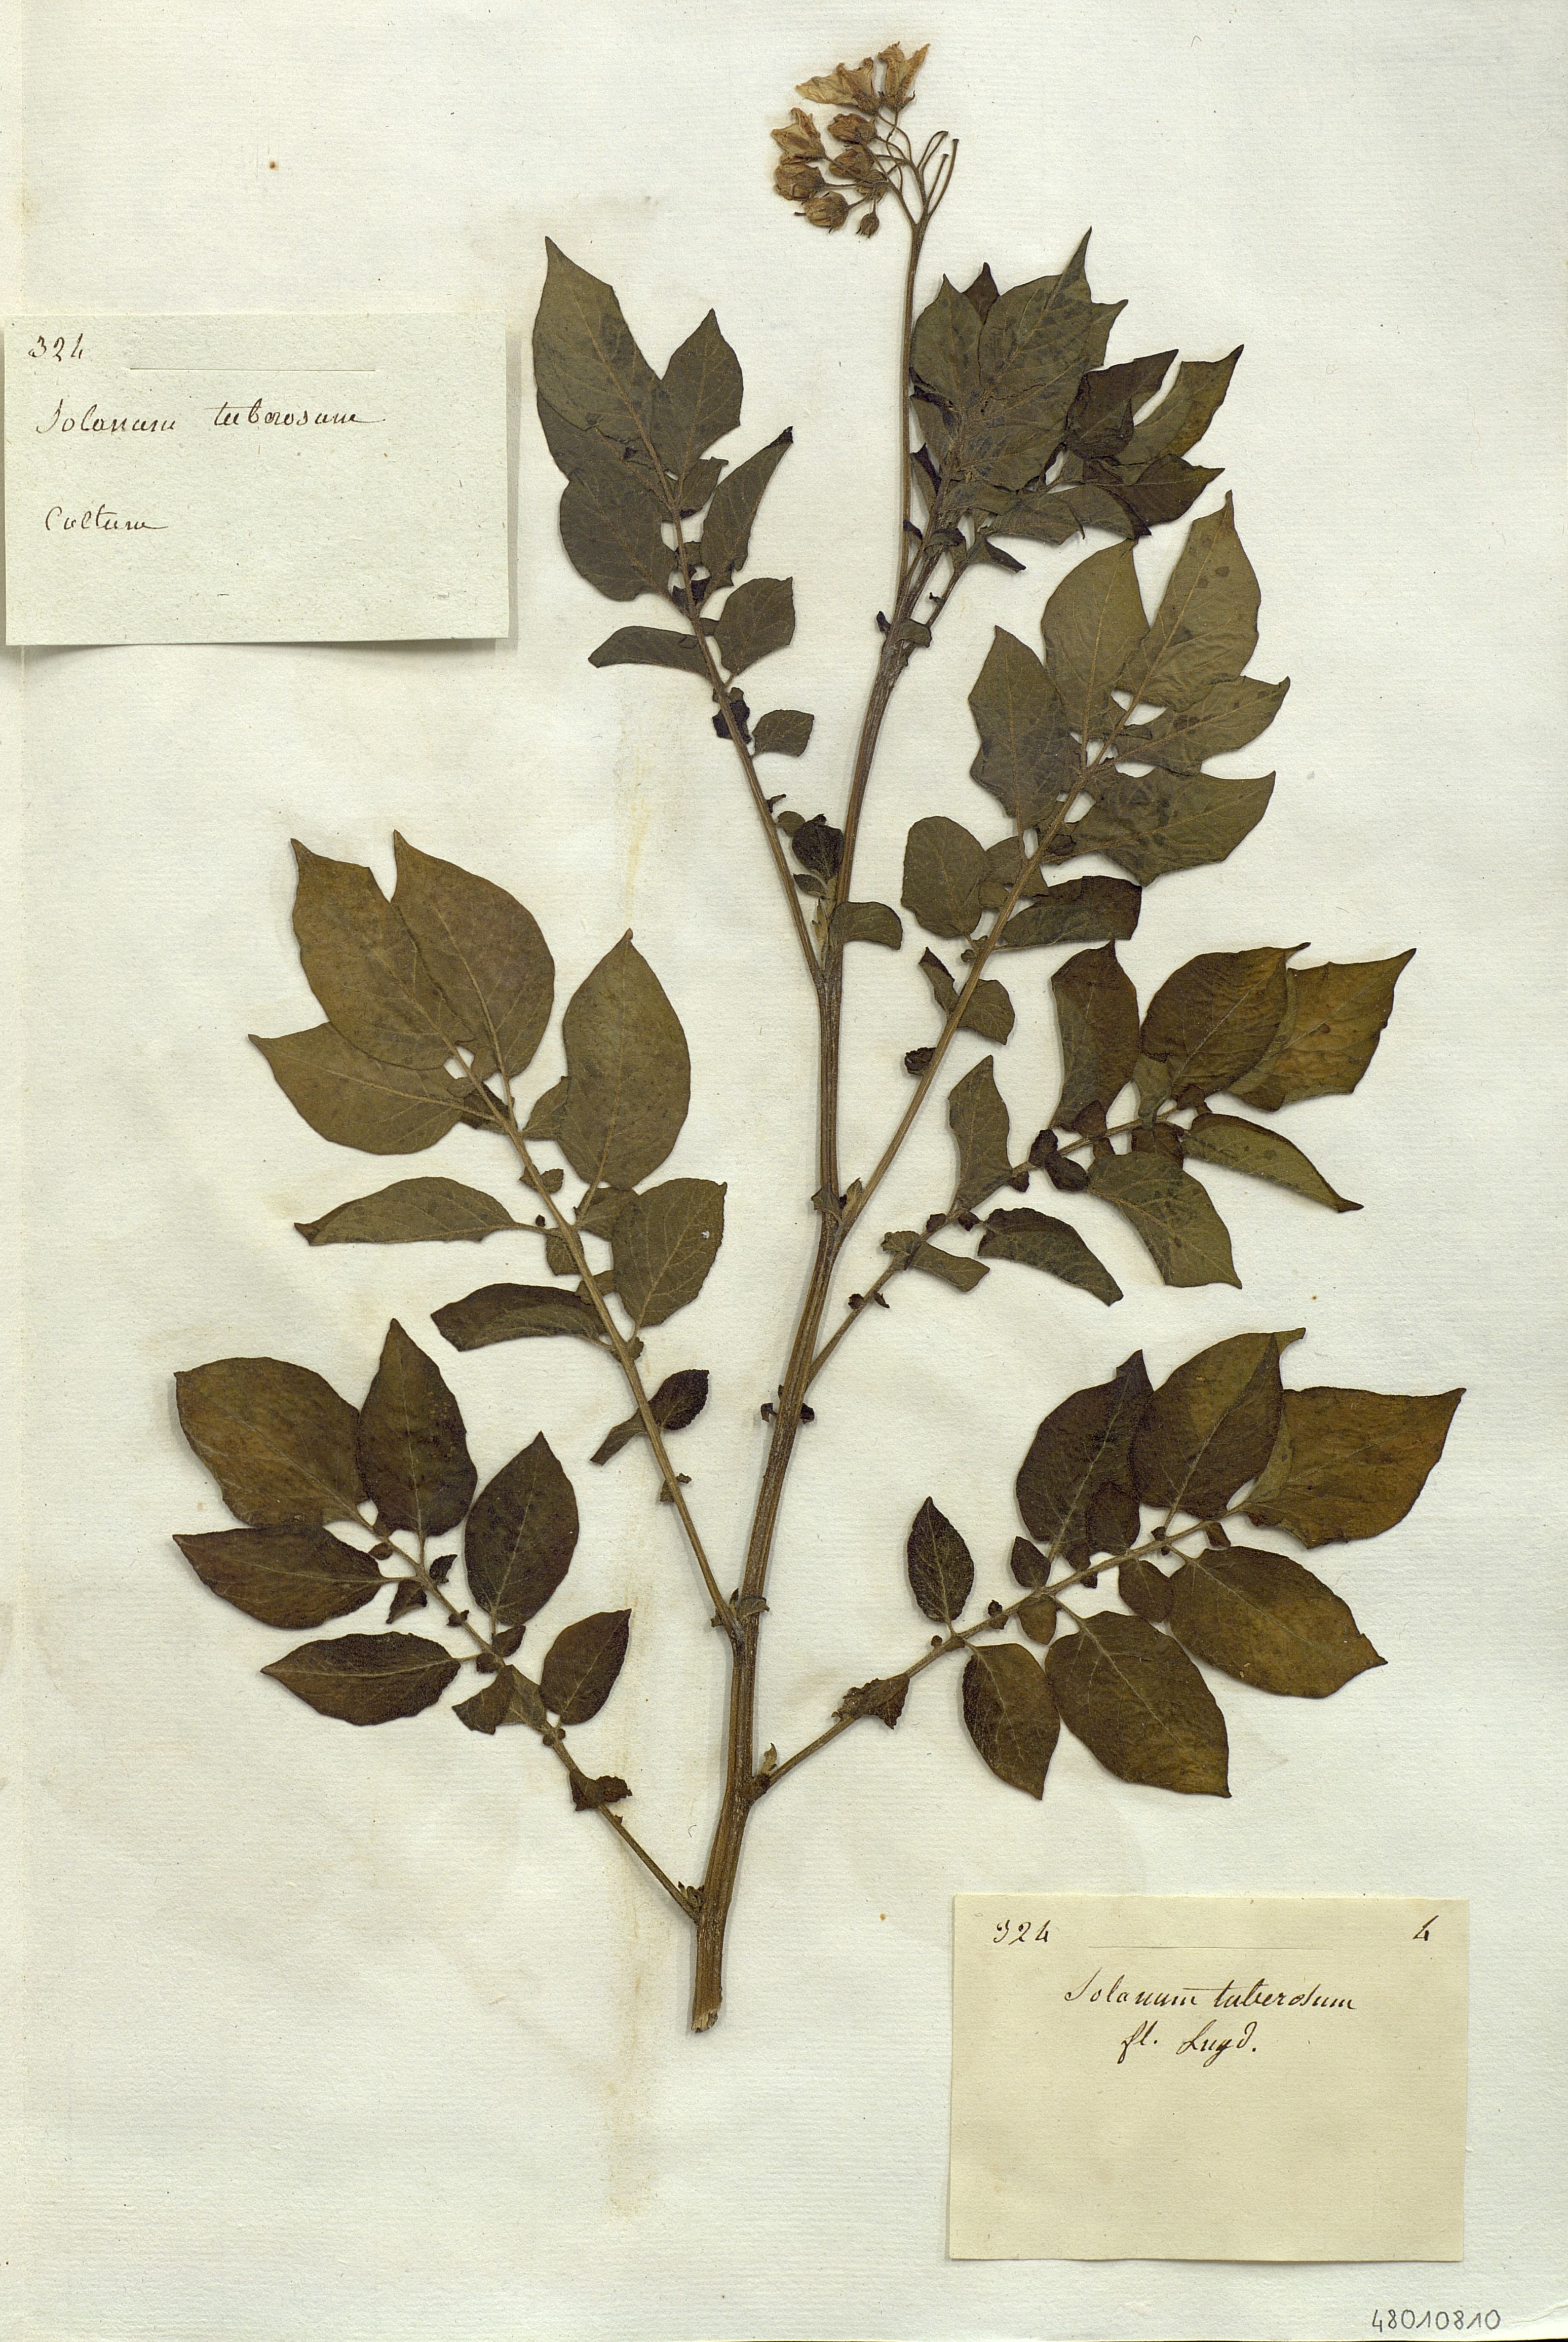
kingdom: Plantae
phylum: Tracheophyta
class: Magnoliopsida
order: Solanales
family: Solanaceae
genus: Solanum
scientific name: Solanum tuberosum
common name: Potato
